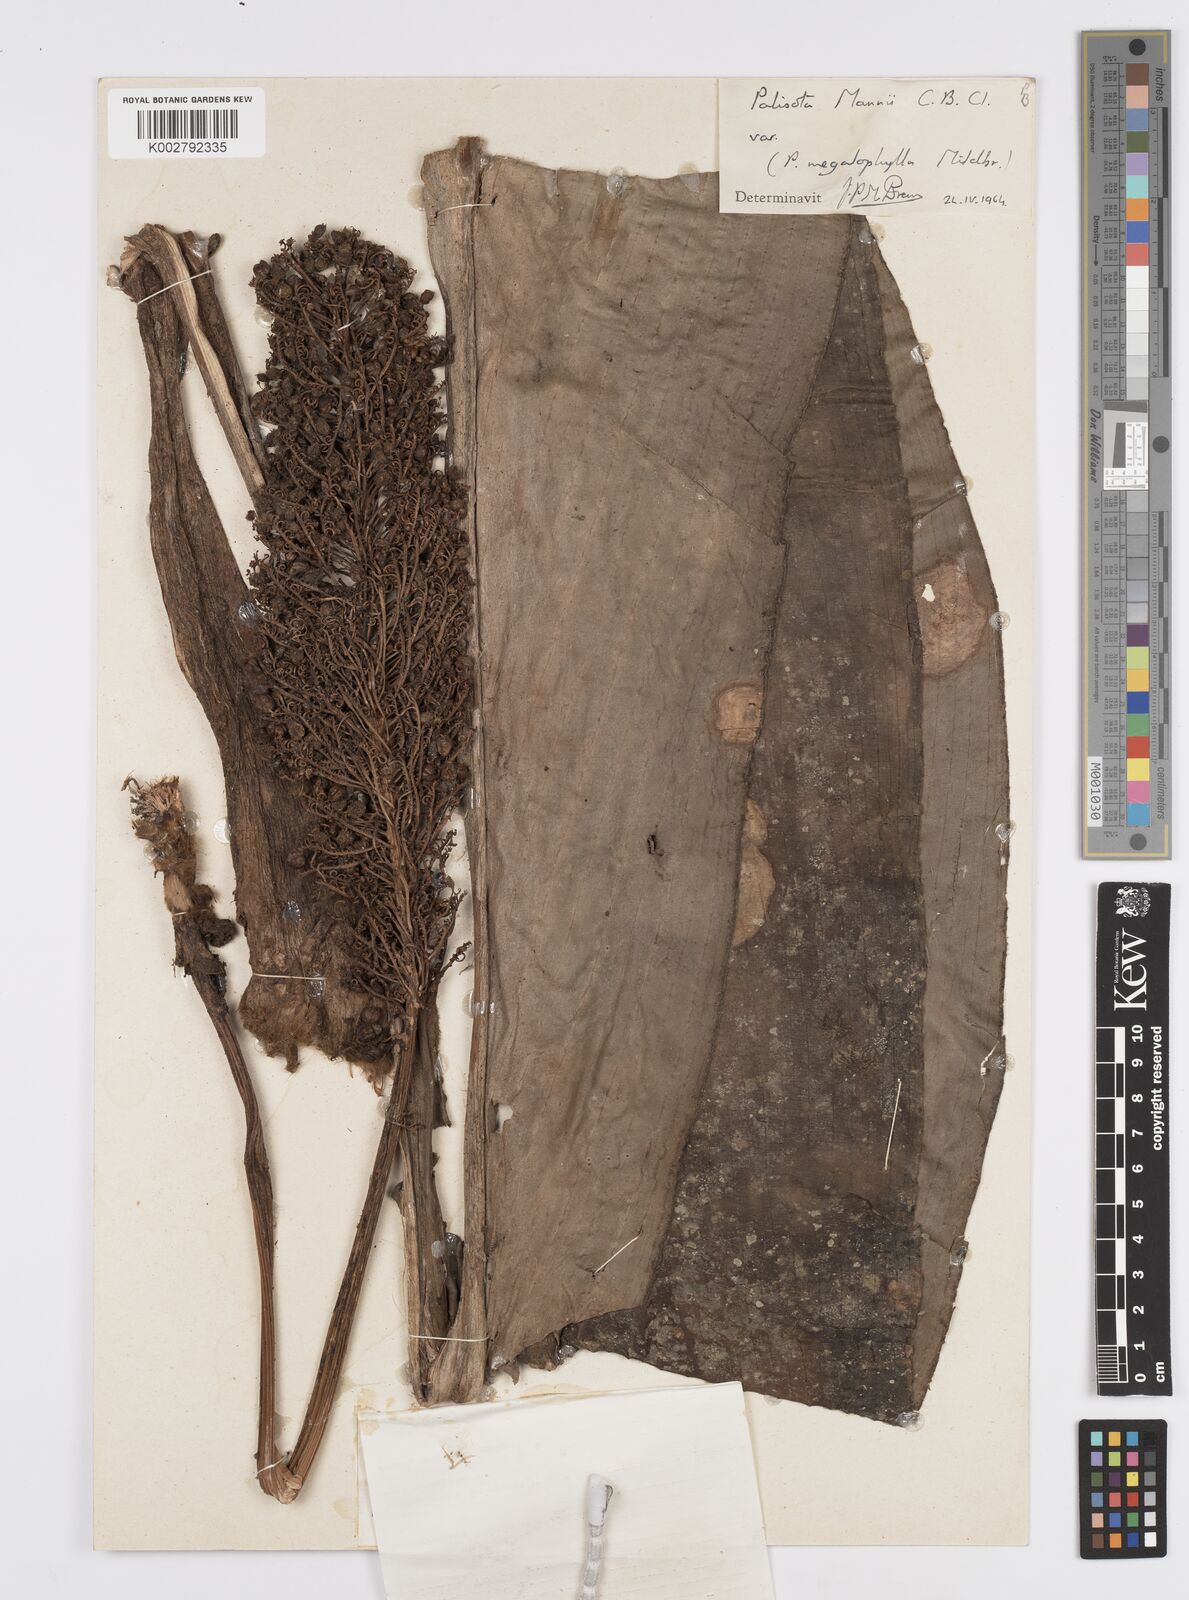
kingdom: Plantae
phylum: Tracheophyta
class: Liliopsida
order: Commelinales
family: Commelinaceae
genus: Palisota
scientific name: Palisota mannii
